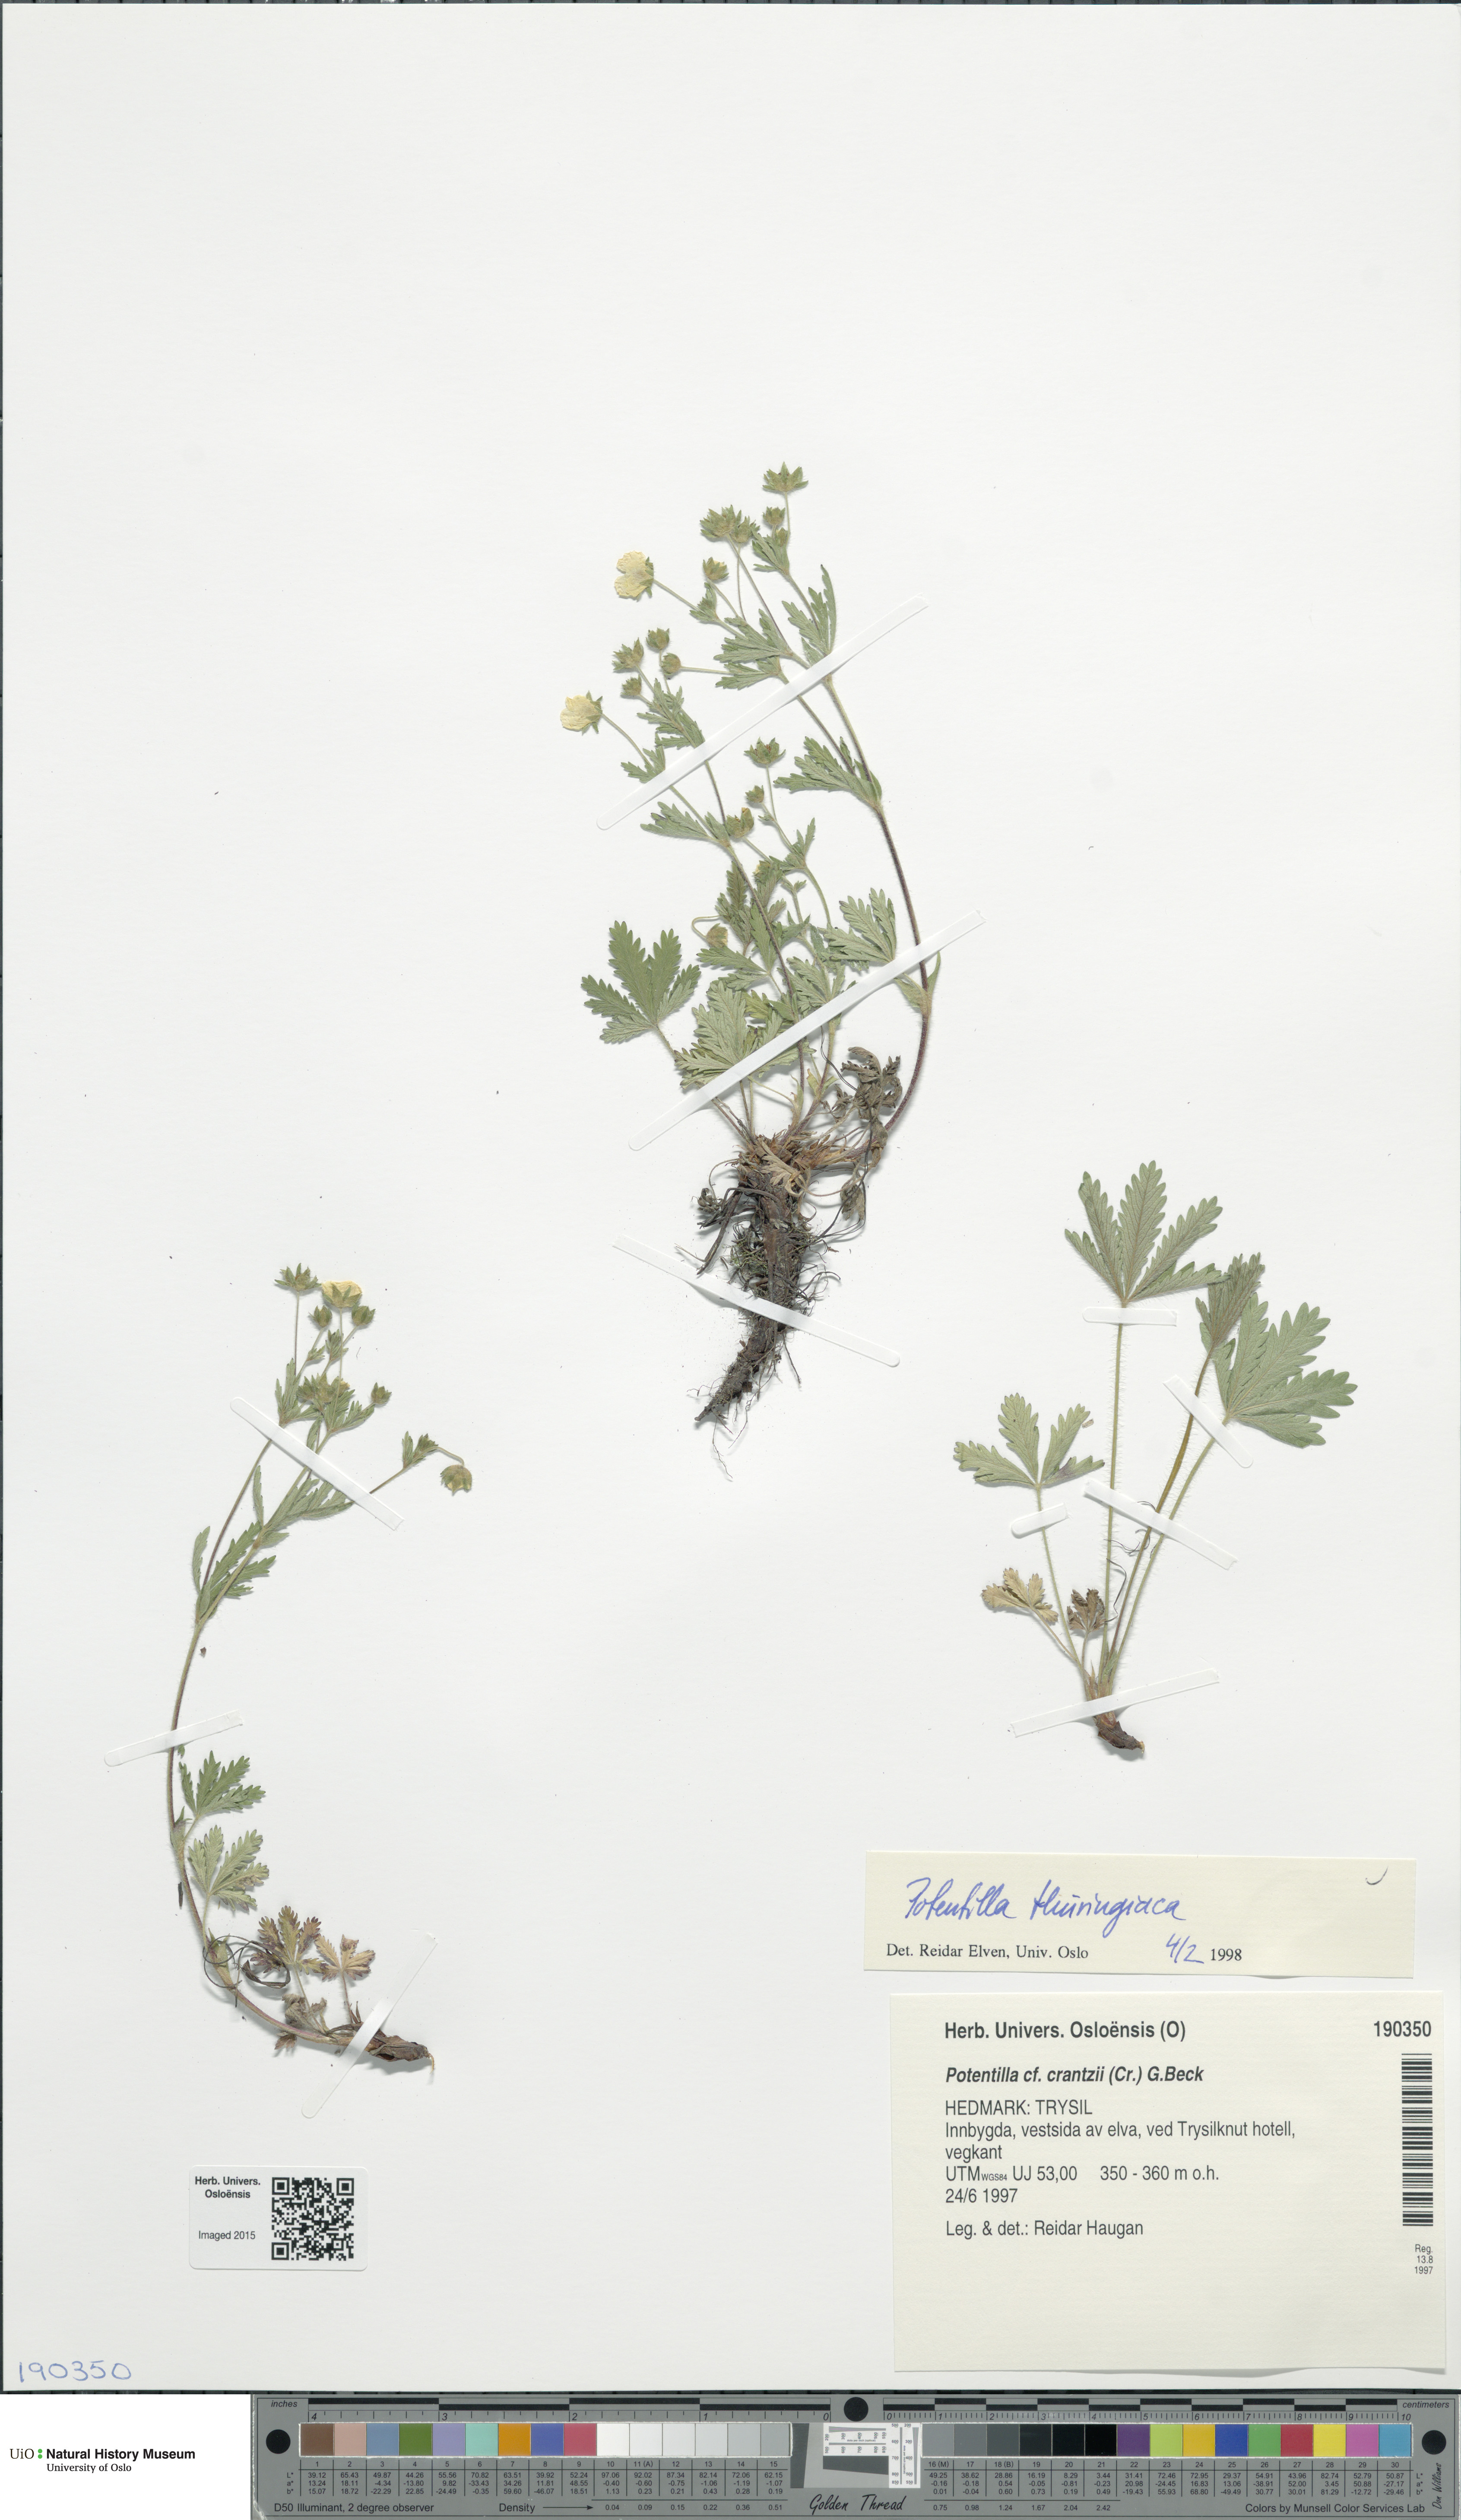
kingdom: Plantae
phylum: Tracheophyta
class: Magnoliopsida
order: Rosales
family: Rosaceae
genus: Potentilla
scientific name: Potentilla thuringiaca
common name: European cinquefoil
